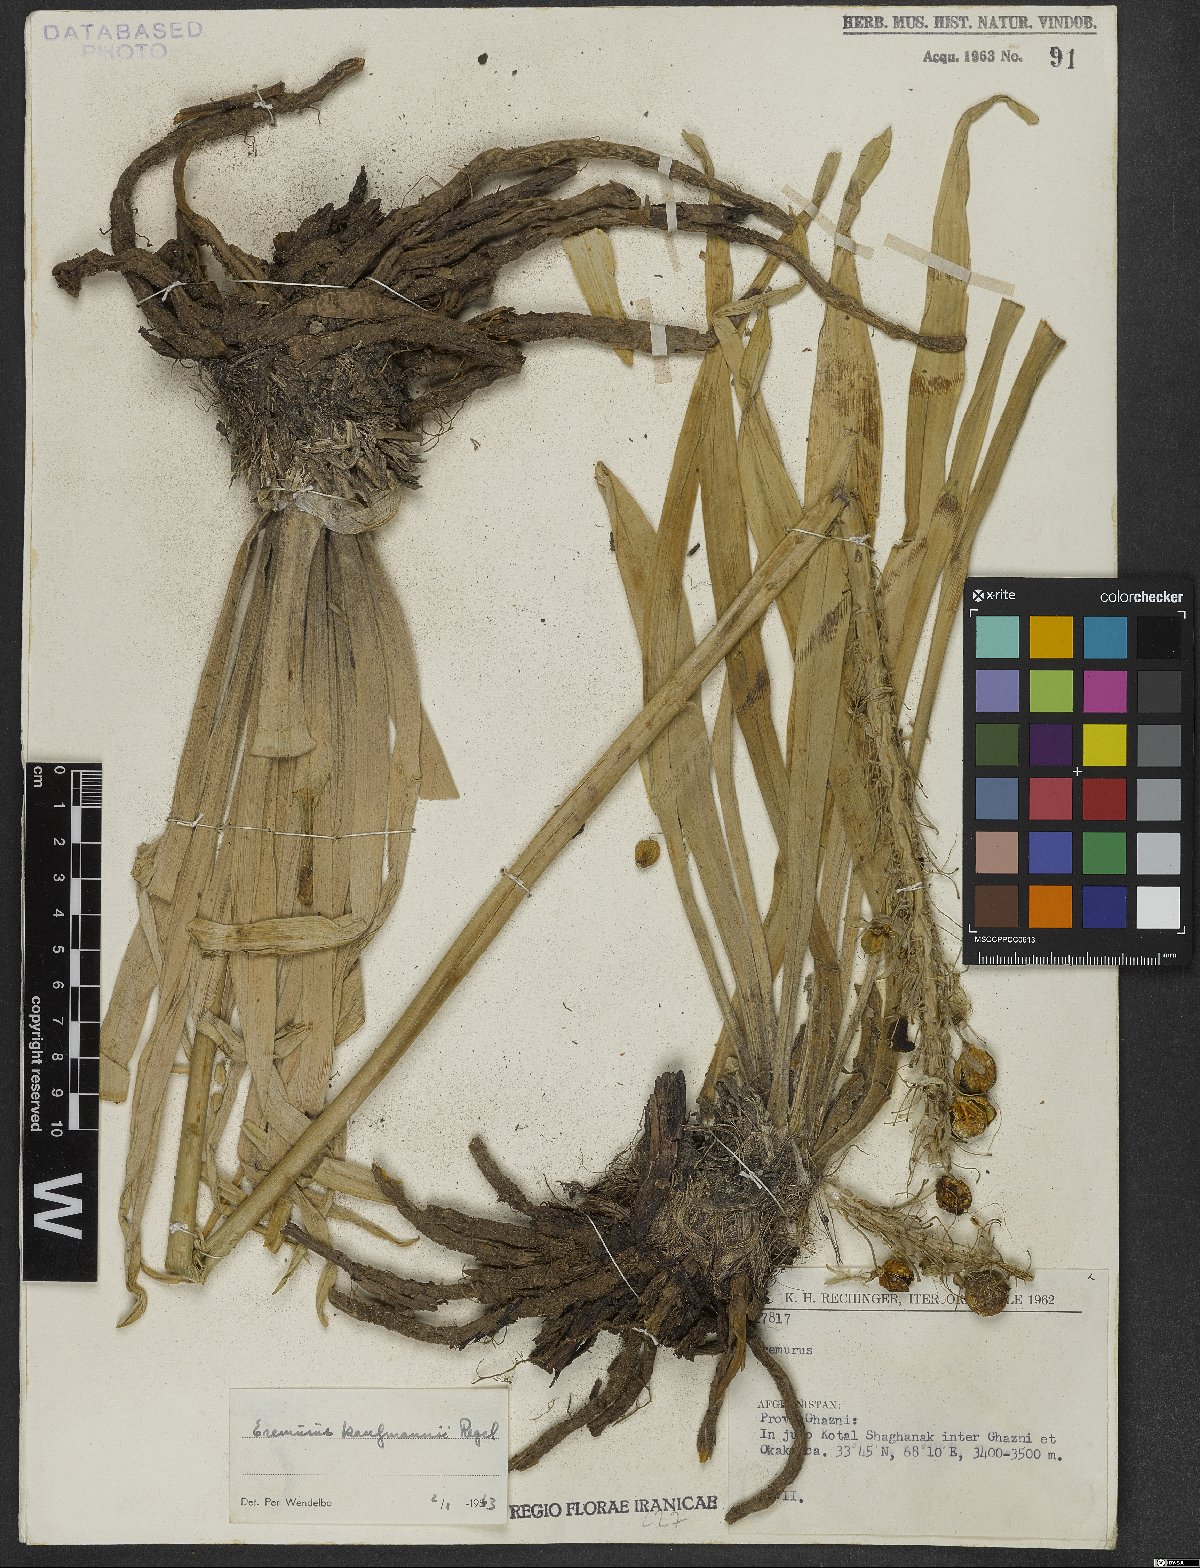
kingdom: Plantae
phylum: Tracheophyta
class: Liliopsida
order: Asparagales
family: Asphodelaceae
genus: Eremurus
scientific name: Eremurus kaufmannii
